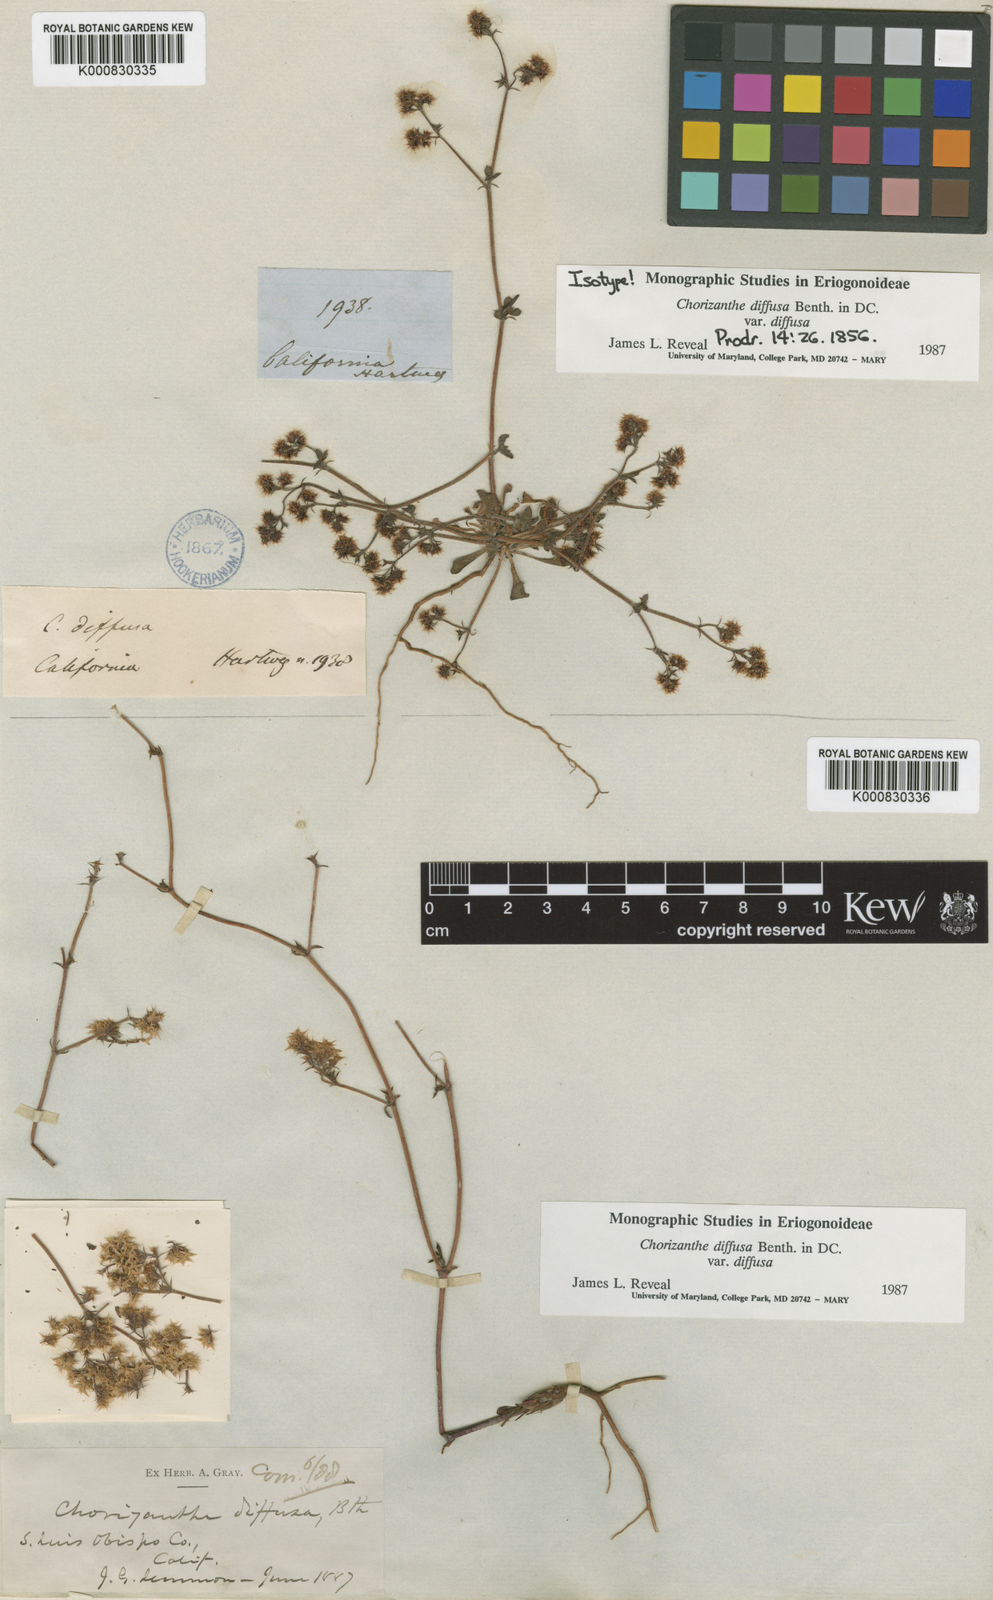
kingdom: Plantae
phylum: Tracheophyta
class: Magnoliopsida
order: Caryophyllales
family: Polygonaceae
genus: Chorizanthe
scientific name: Chorizanthe diffusa
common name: Diffuse spineflower
